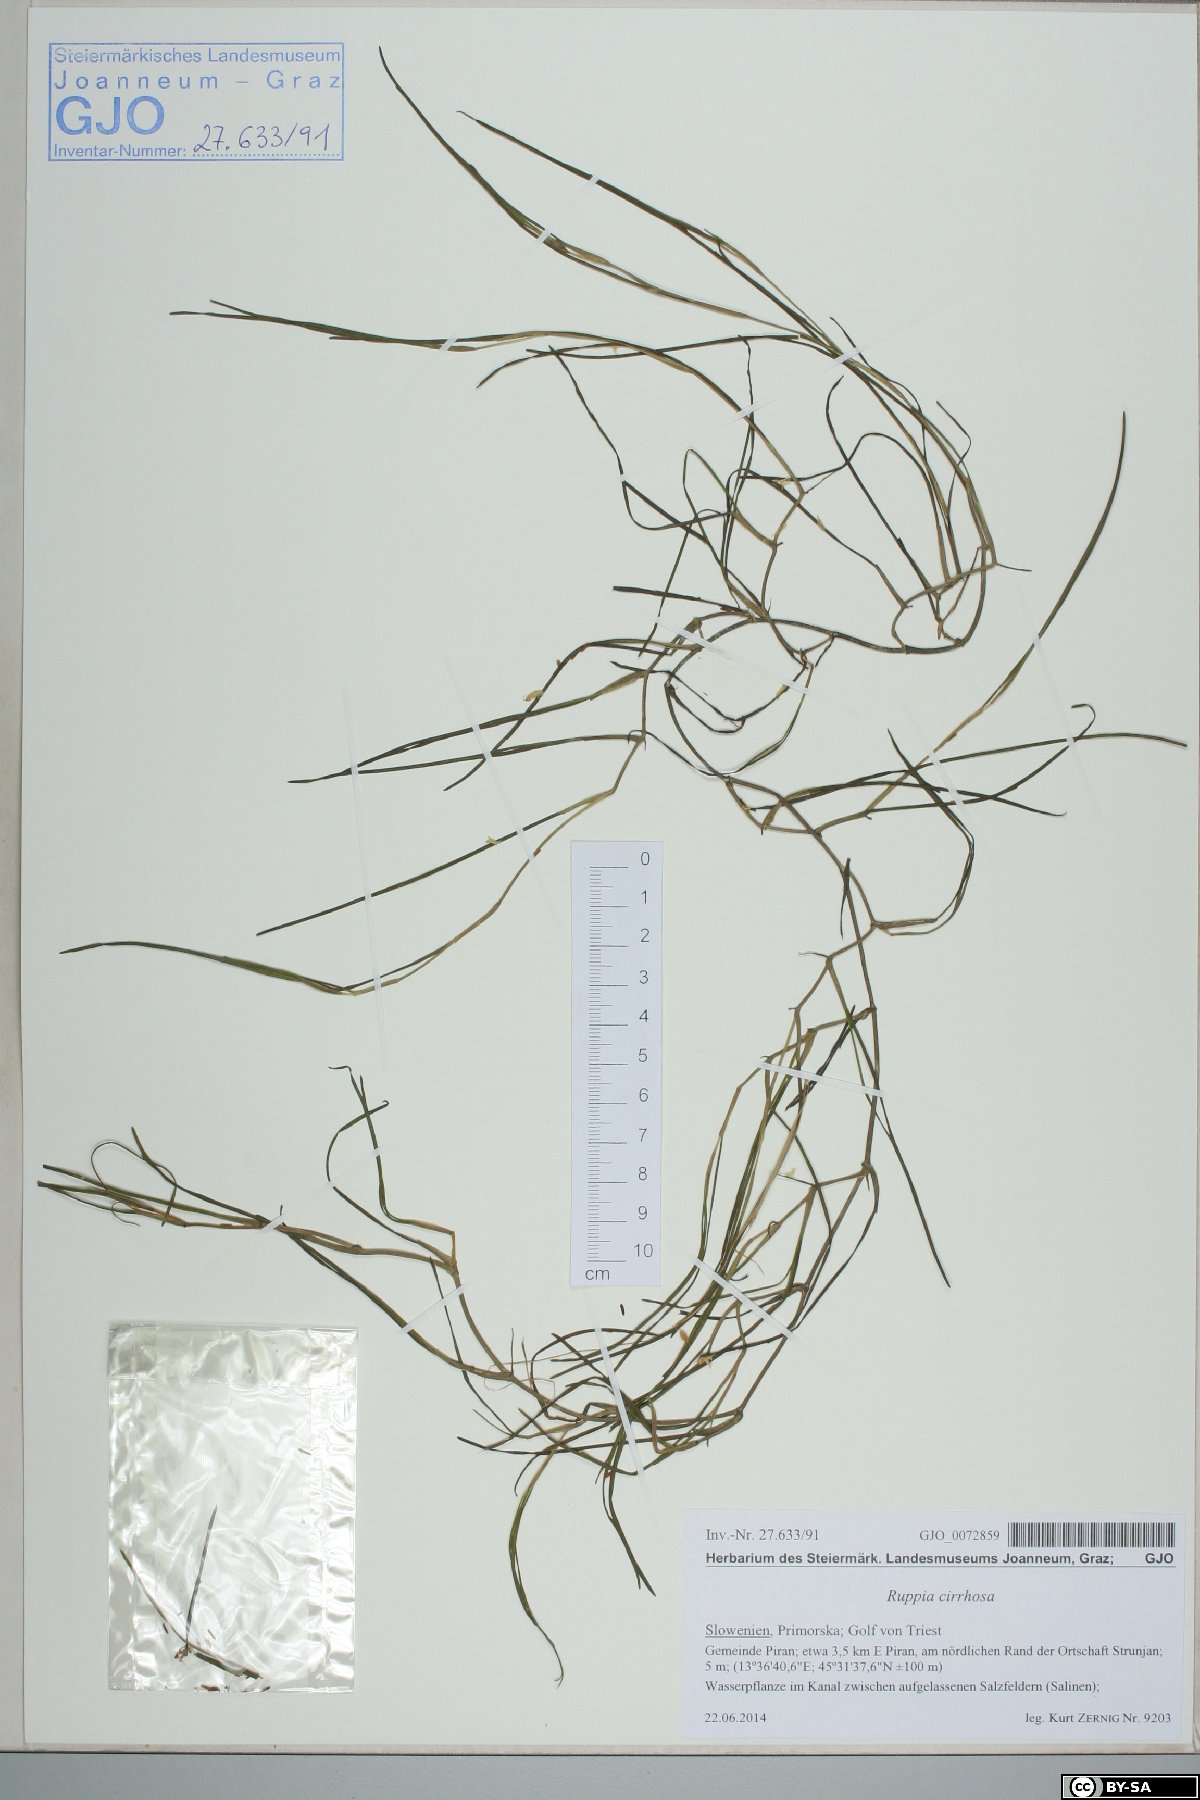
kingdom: Plantae
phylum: Tracheophyta
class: Liliopsida
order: Alismatales
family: Ruppiaceae
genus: Ruppia
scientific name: Ruppia cirrhosa
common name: Spiral tasselweed
